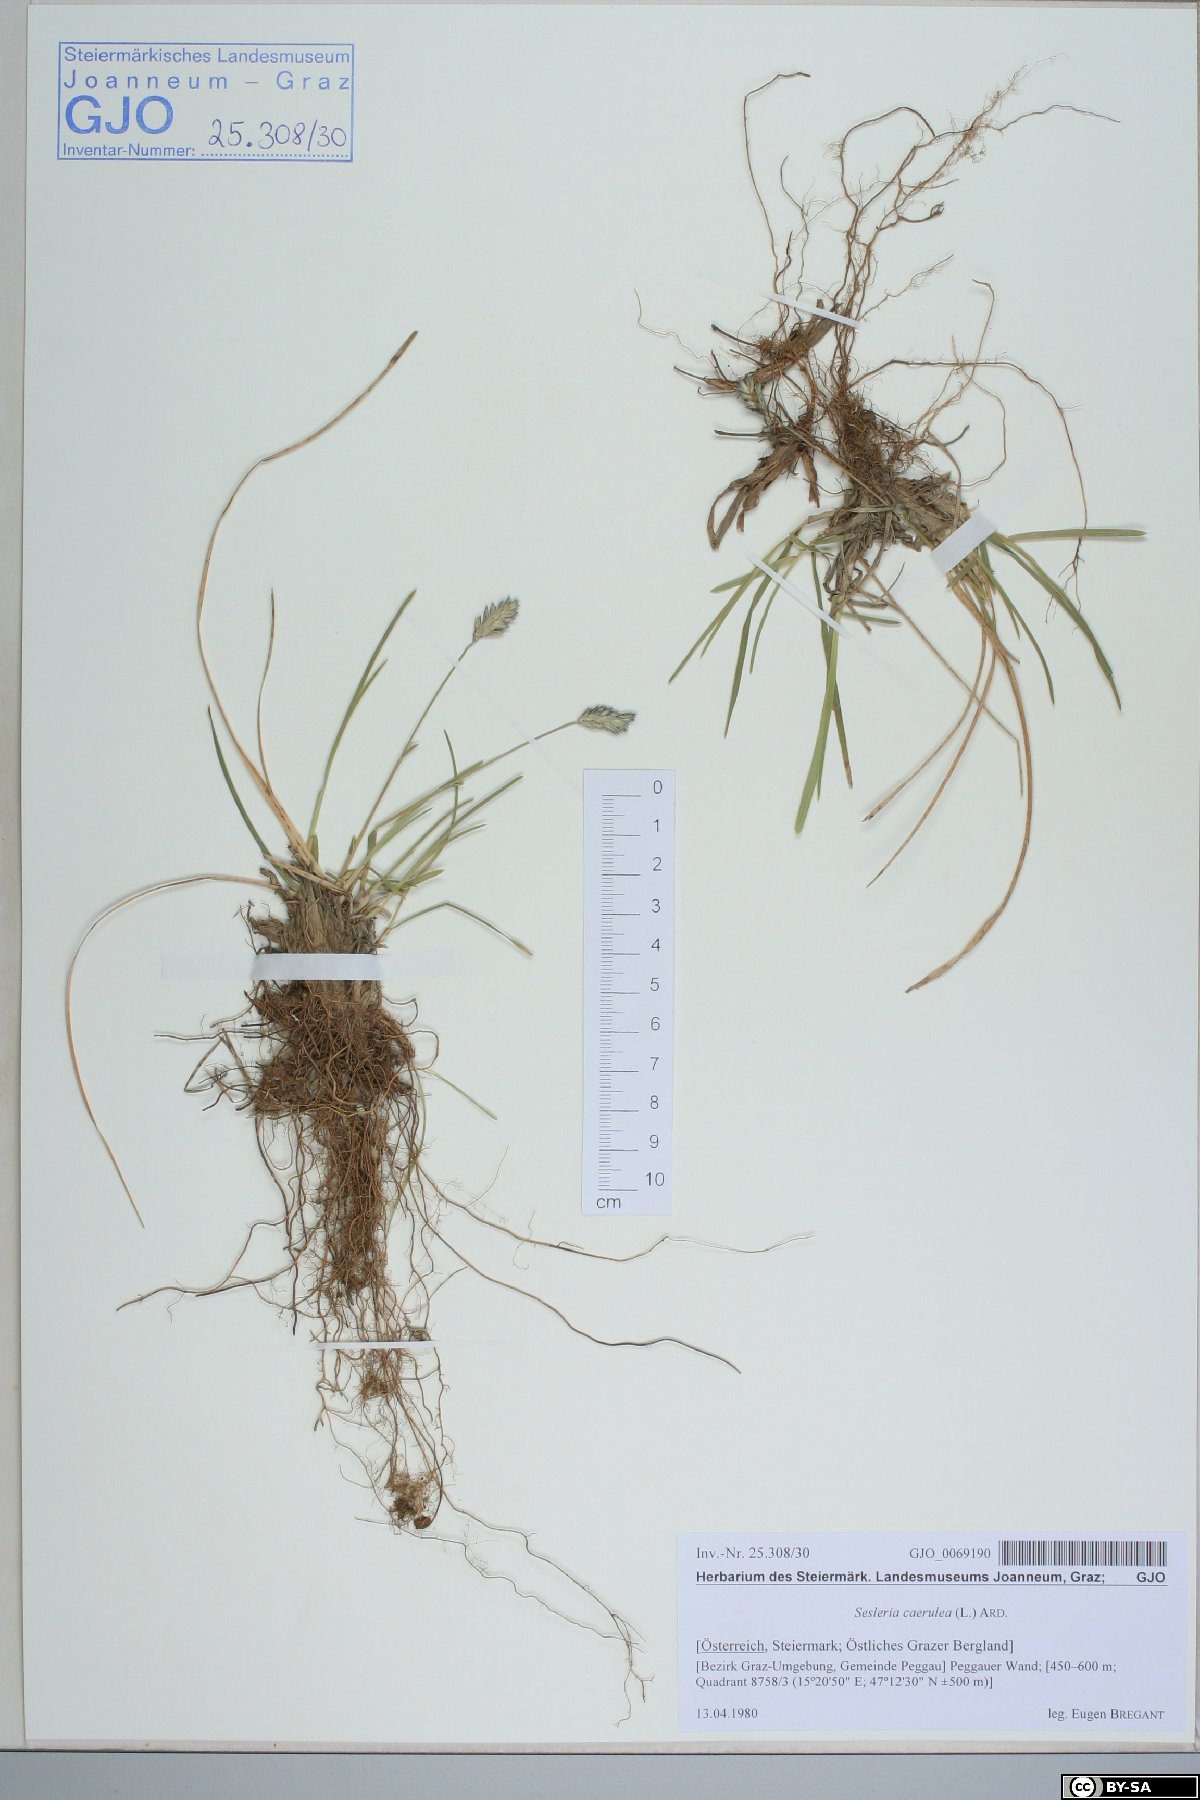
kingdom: Plantae
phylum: Tracheophyta
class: Liliopsida
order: Poales
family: Poaceae
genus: Sesleria
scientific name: Sesleria caerulea
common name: Blue moor-grass
